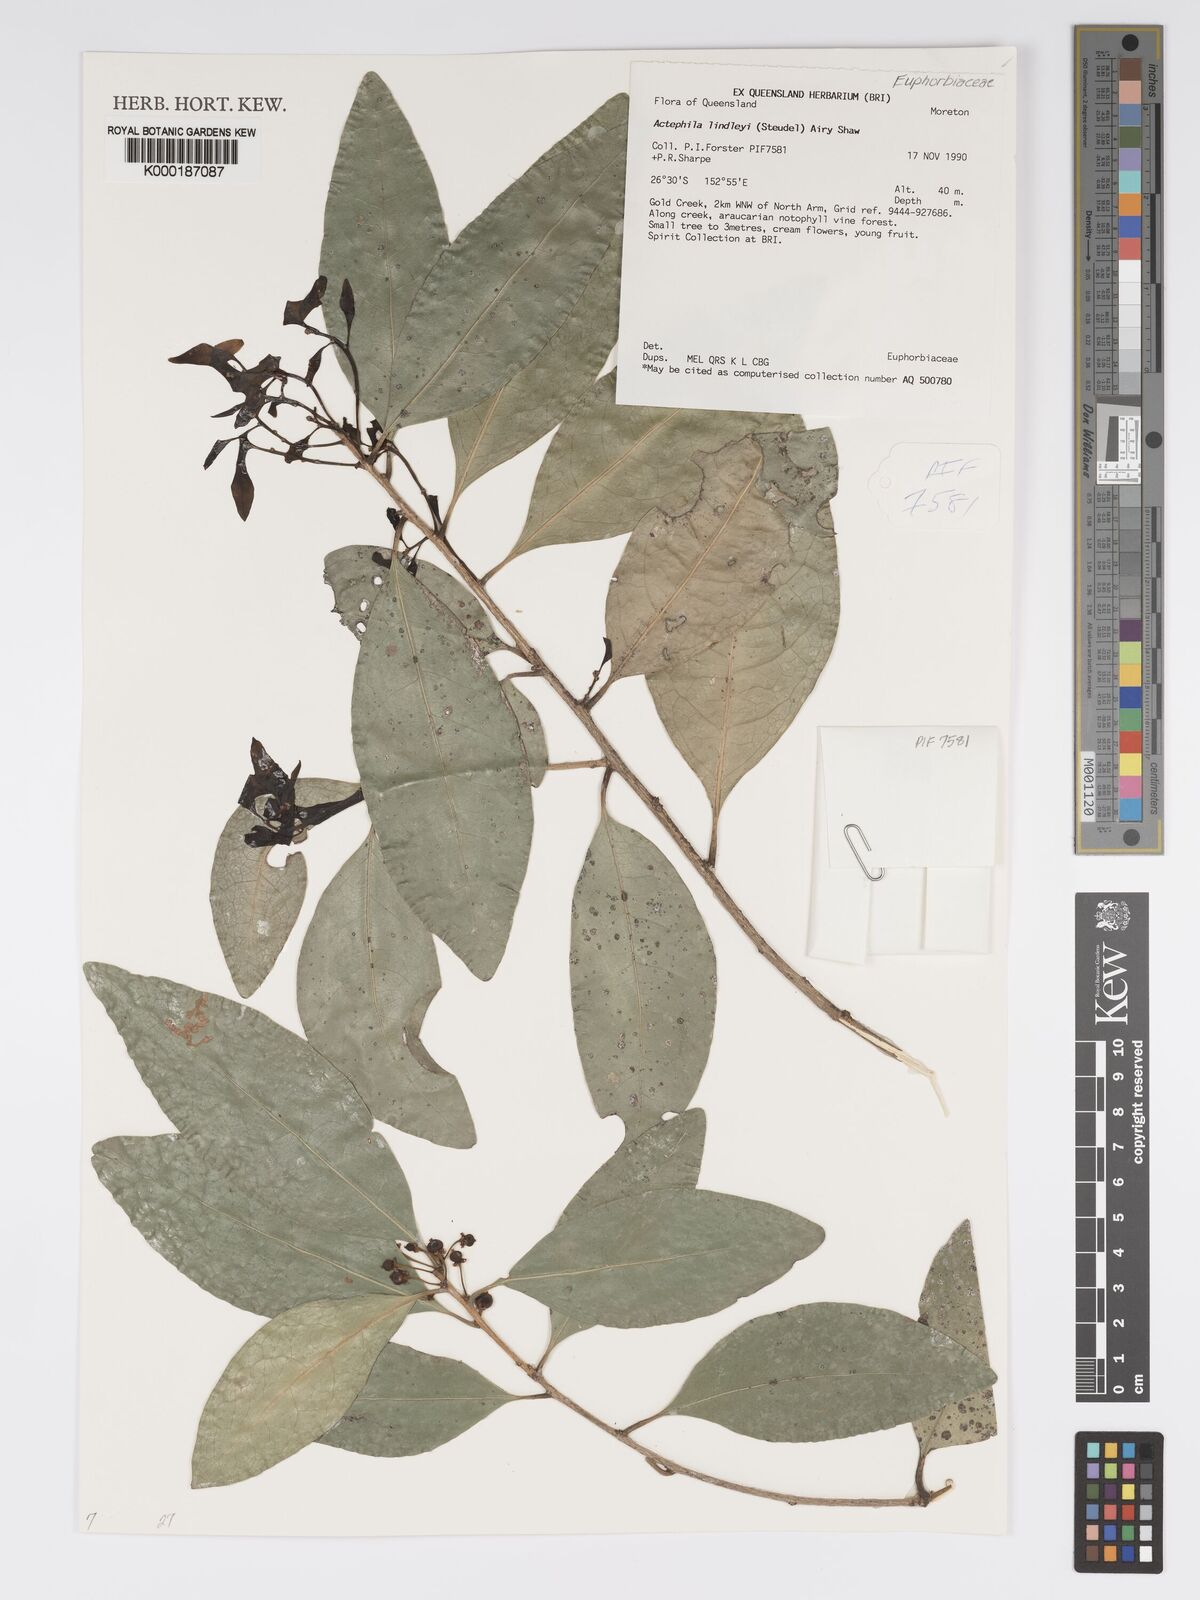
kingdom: Plantae
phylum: Tracheophyta
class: Magnoliopsida
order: Malpighiales
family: Phyllanthaceae
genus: Actephila
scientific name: Actephila lindleyi
